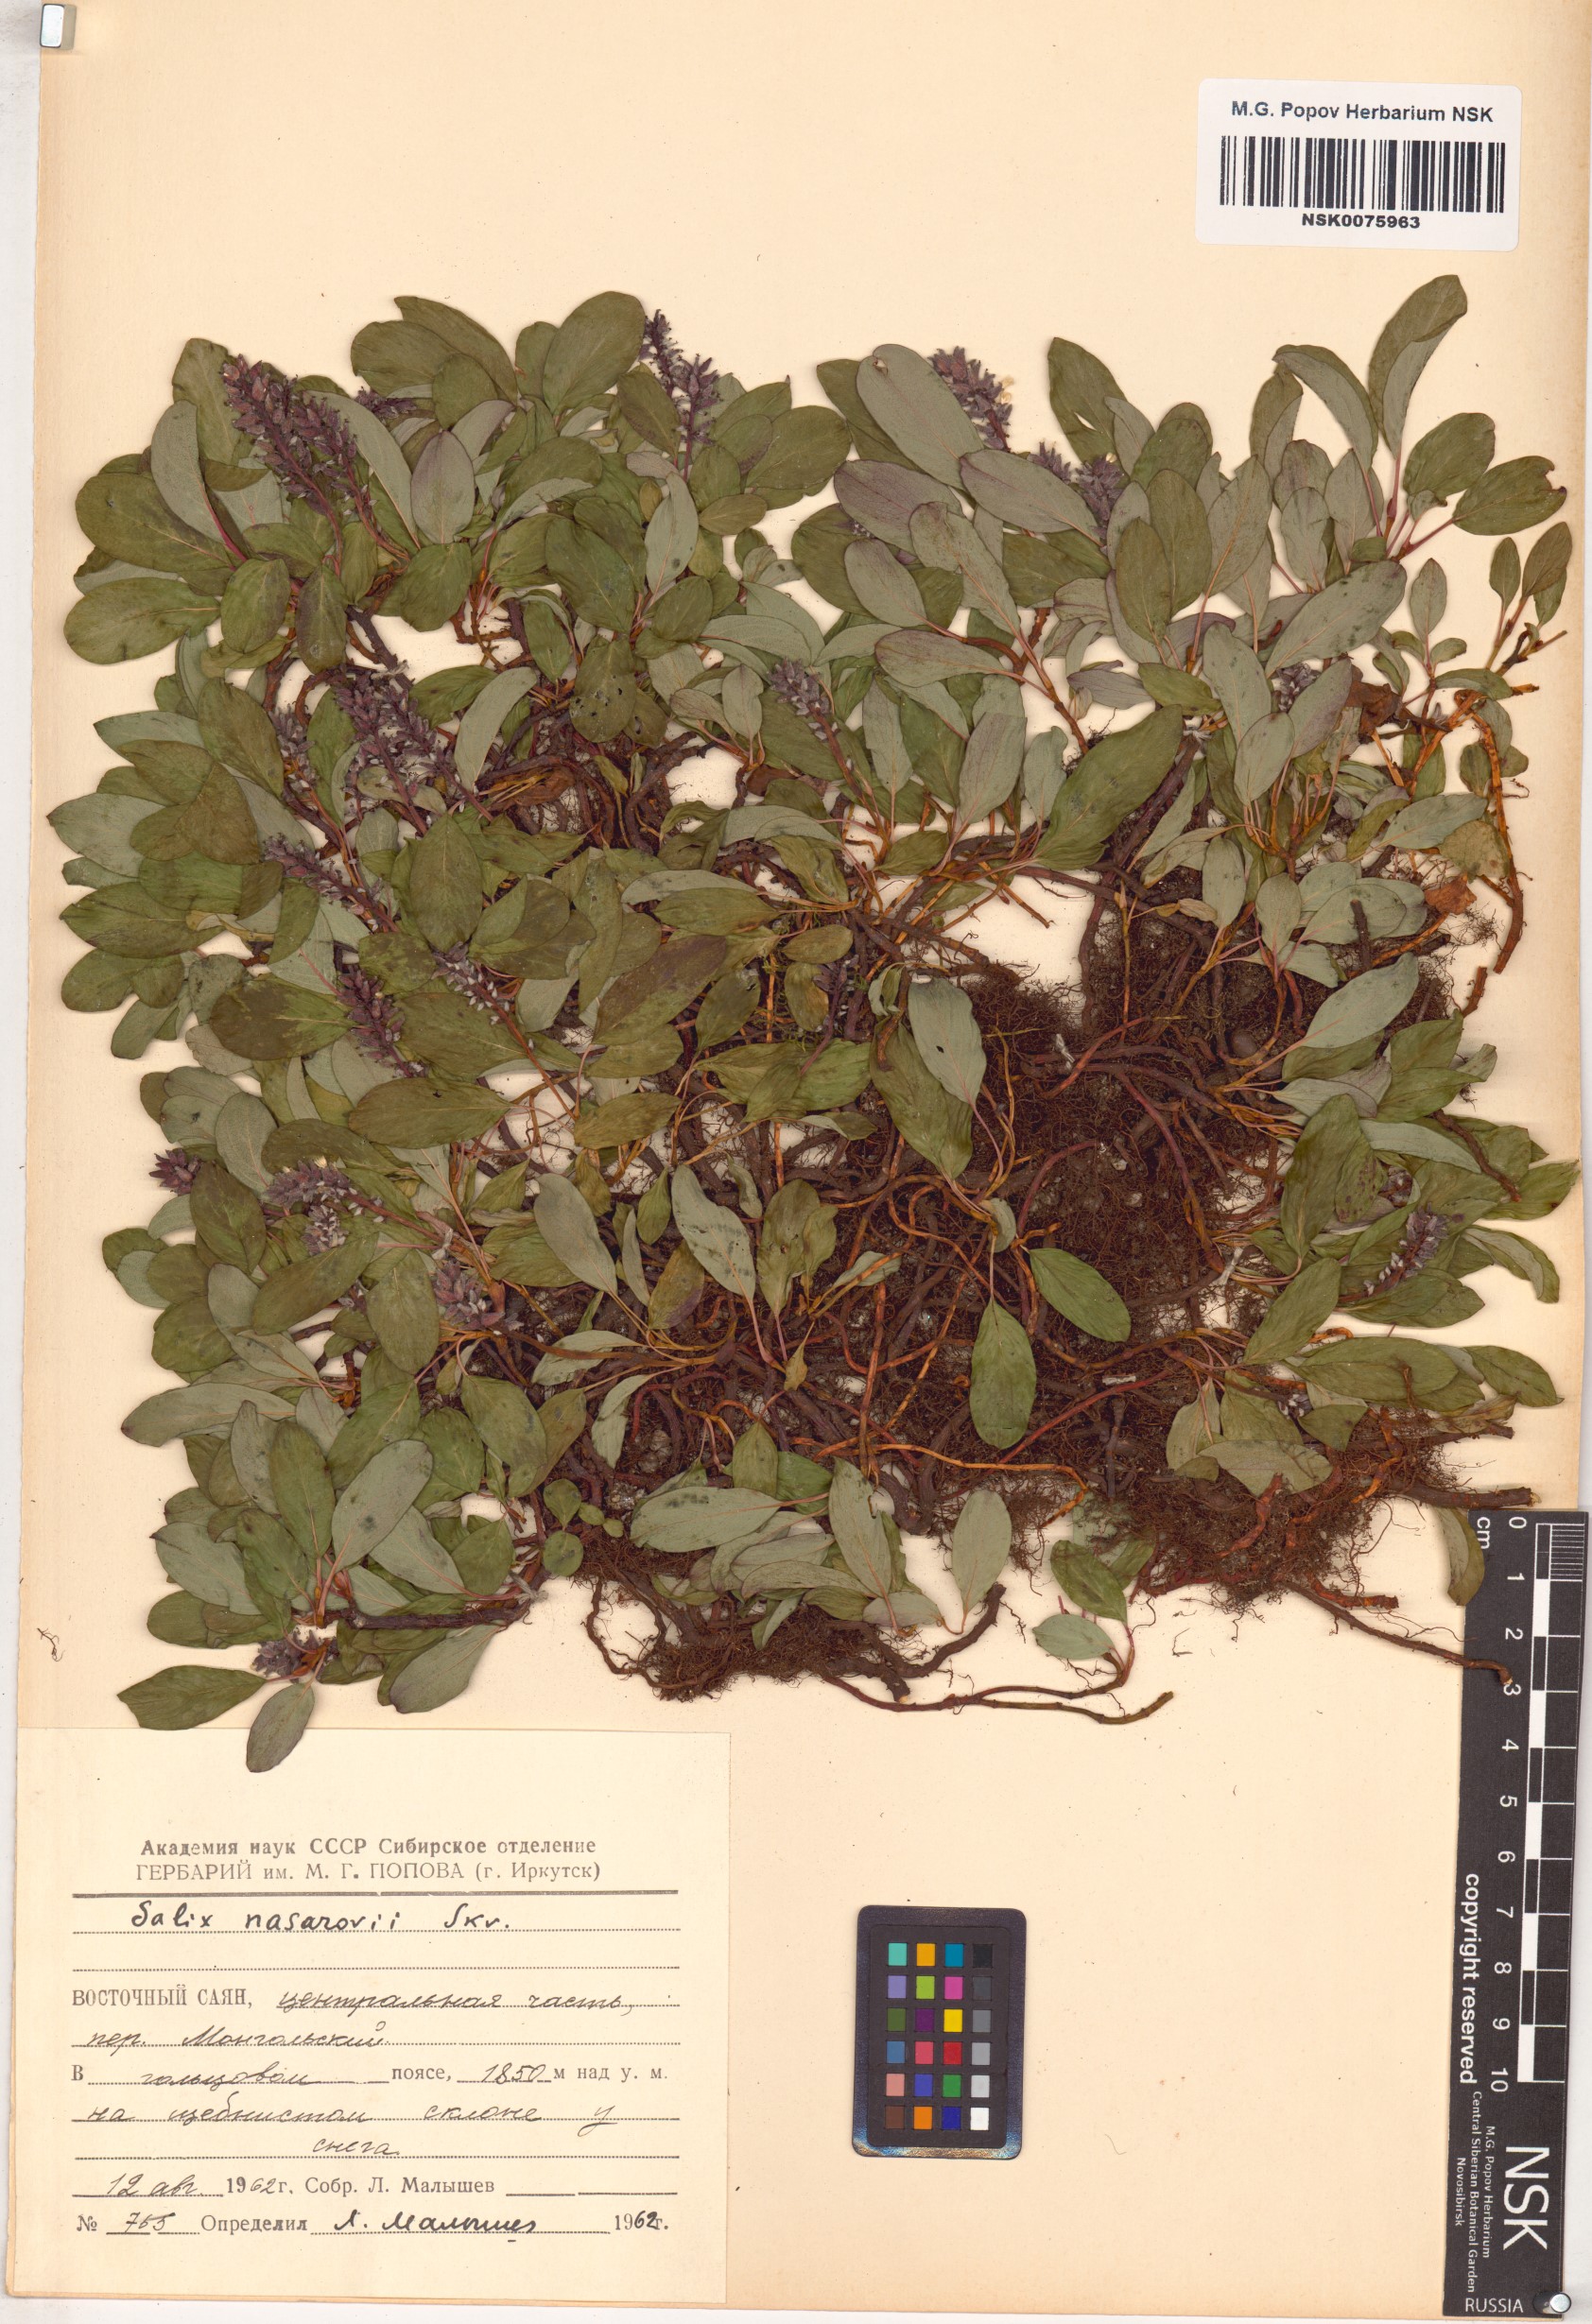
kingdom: Plantae
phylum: Tracheophyta
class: Magnoliopsida
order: Malpighiales
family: Salicaceae
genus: Salix
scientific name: Salix nasarovii
